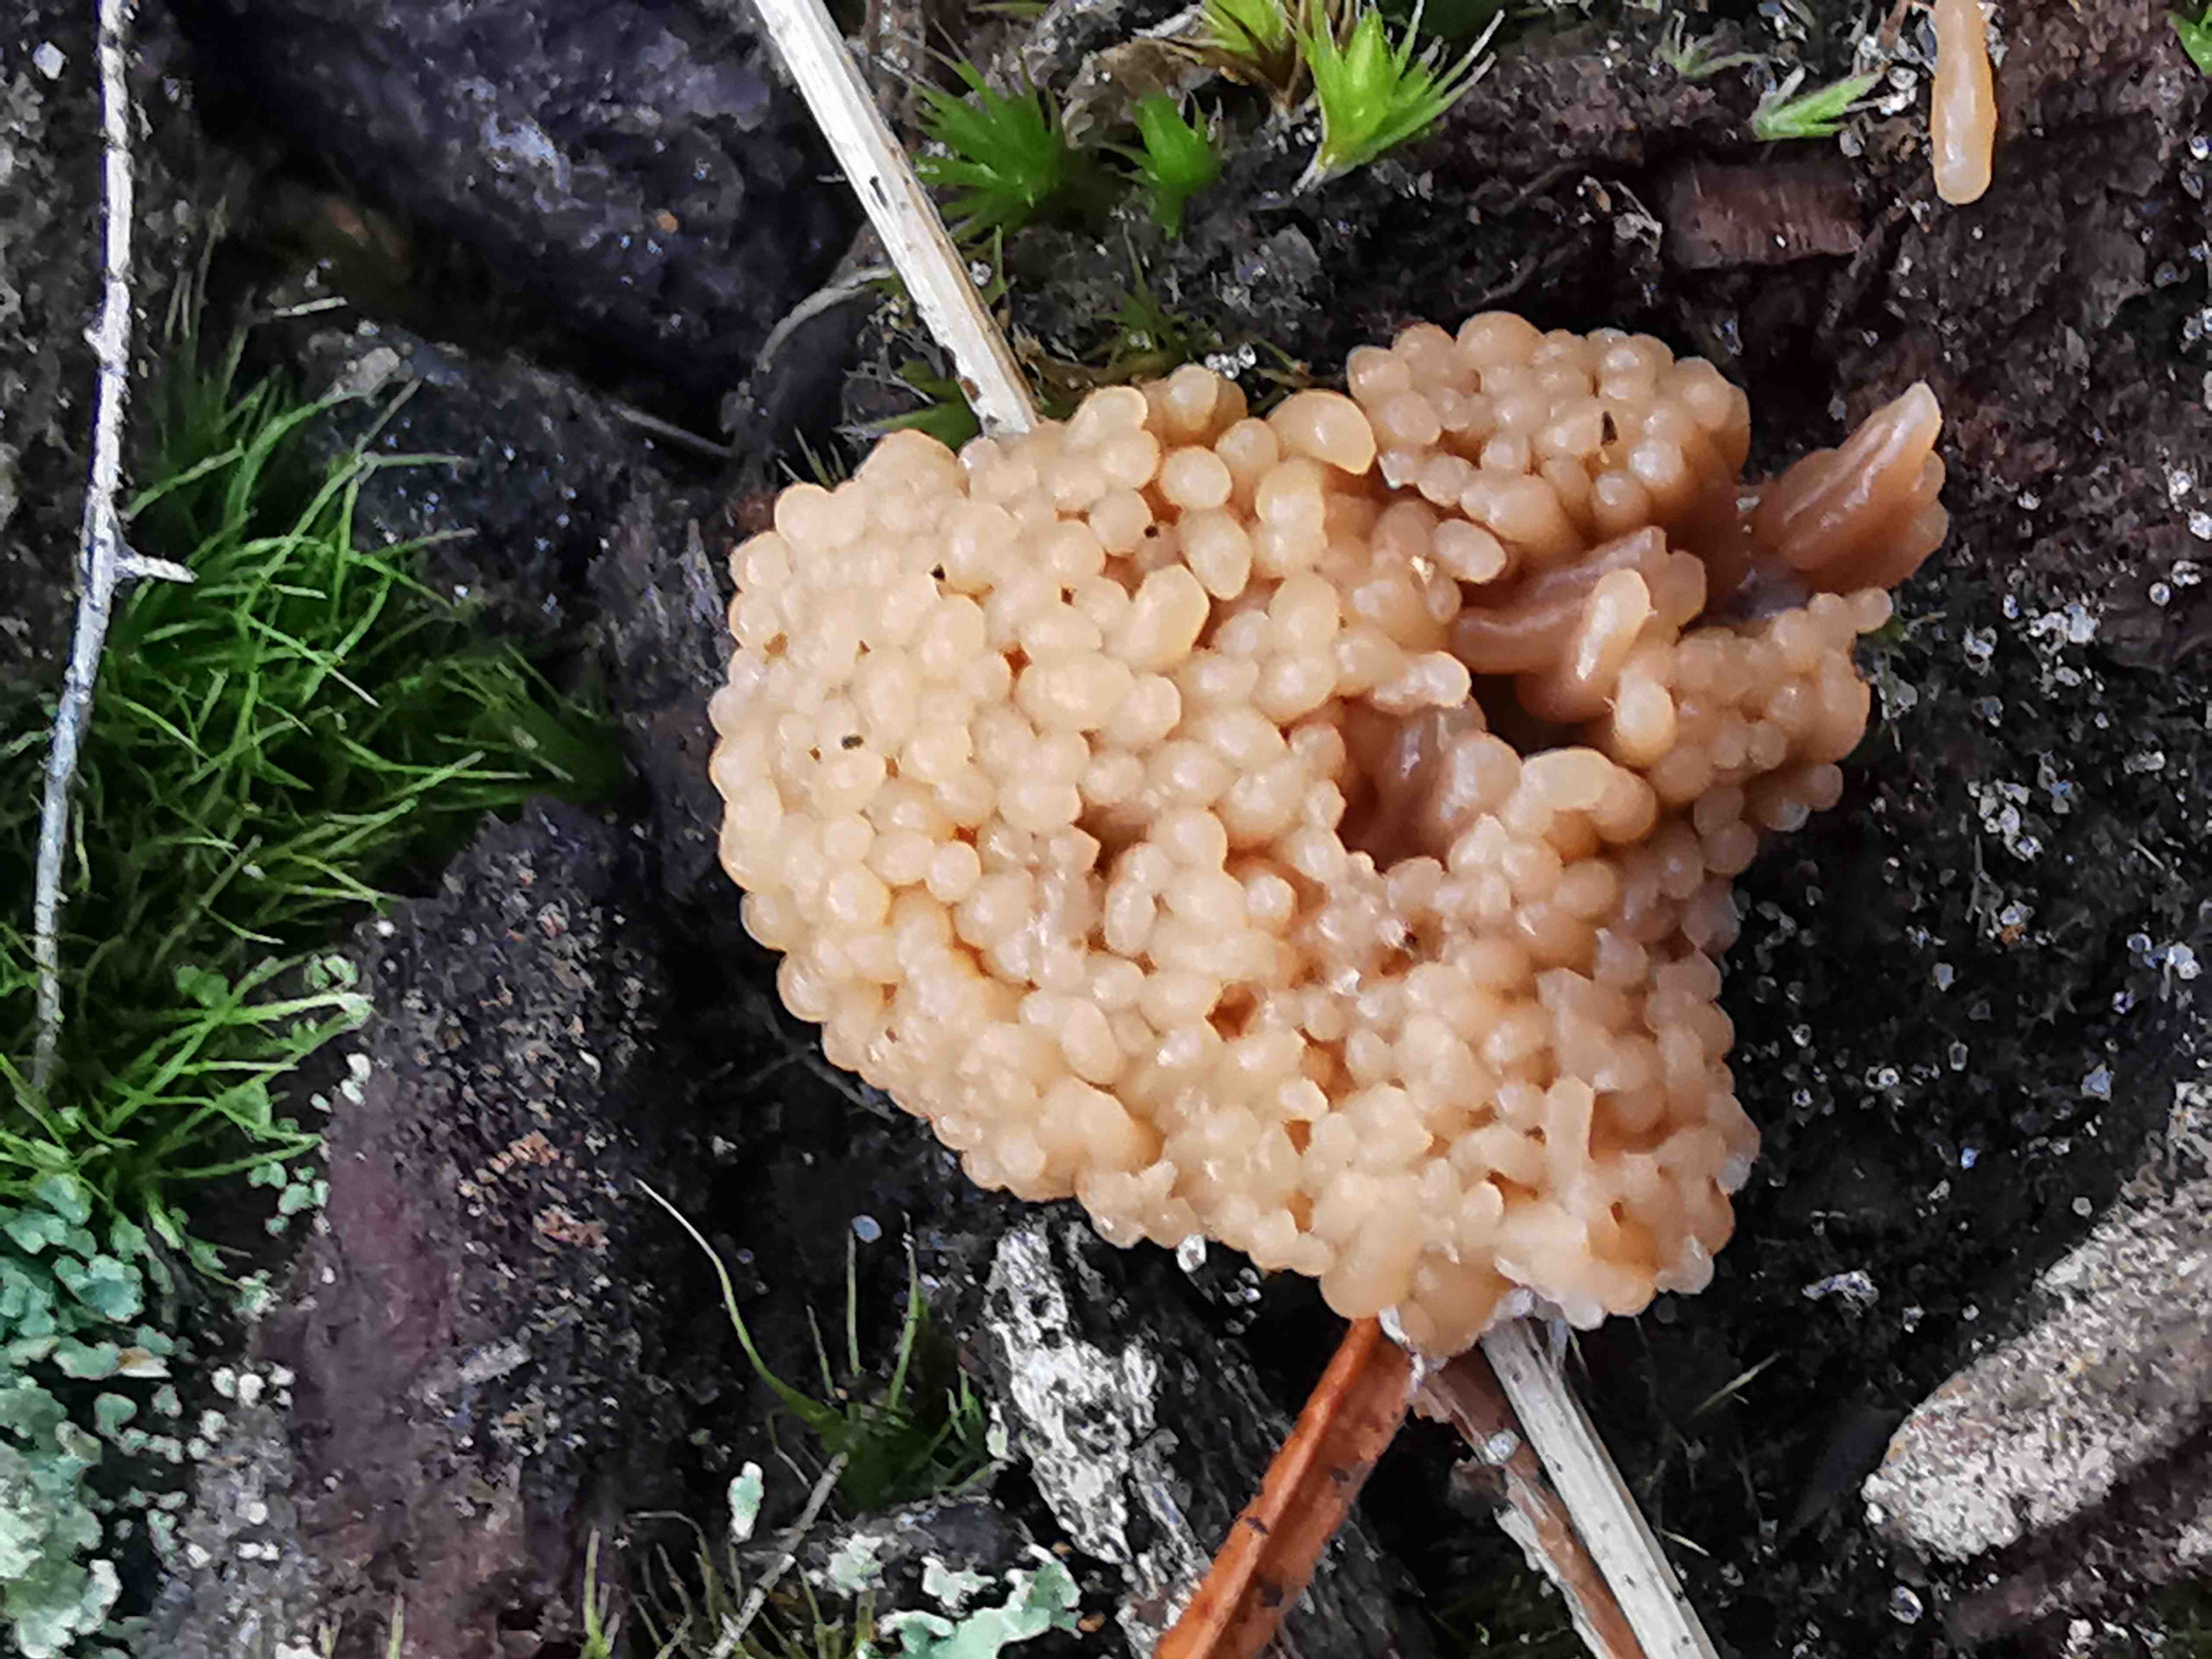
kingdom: Protozoa
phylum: Mycetozoa
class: Myxomycetes
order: Cribrariales
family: Tubiferaceae
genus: Tubifera
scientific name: Tubifera ferruginosa
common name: kanel-støvrør
